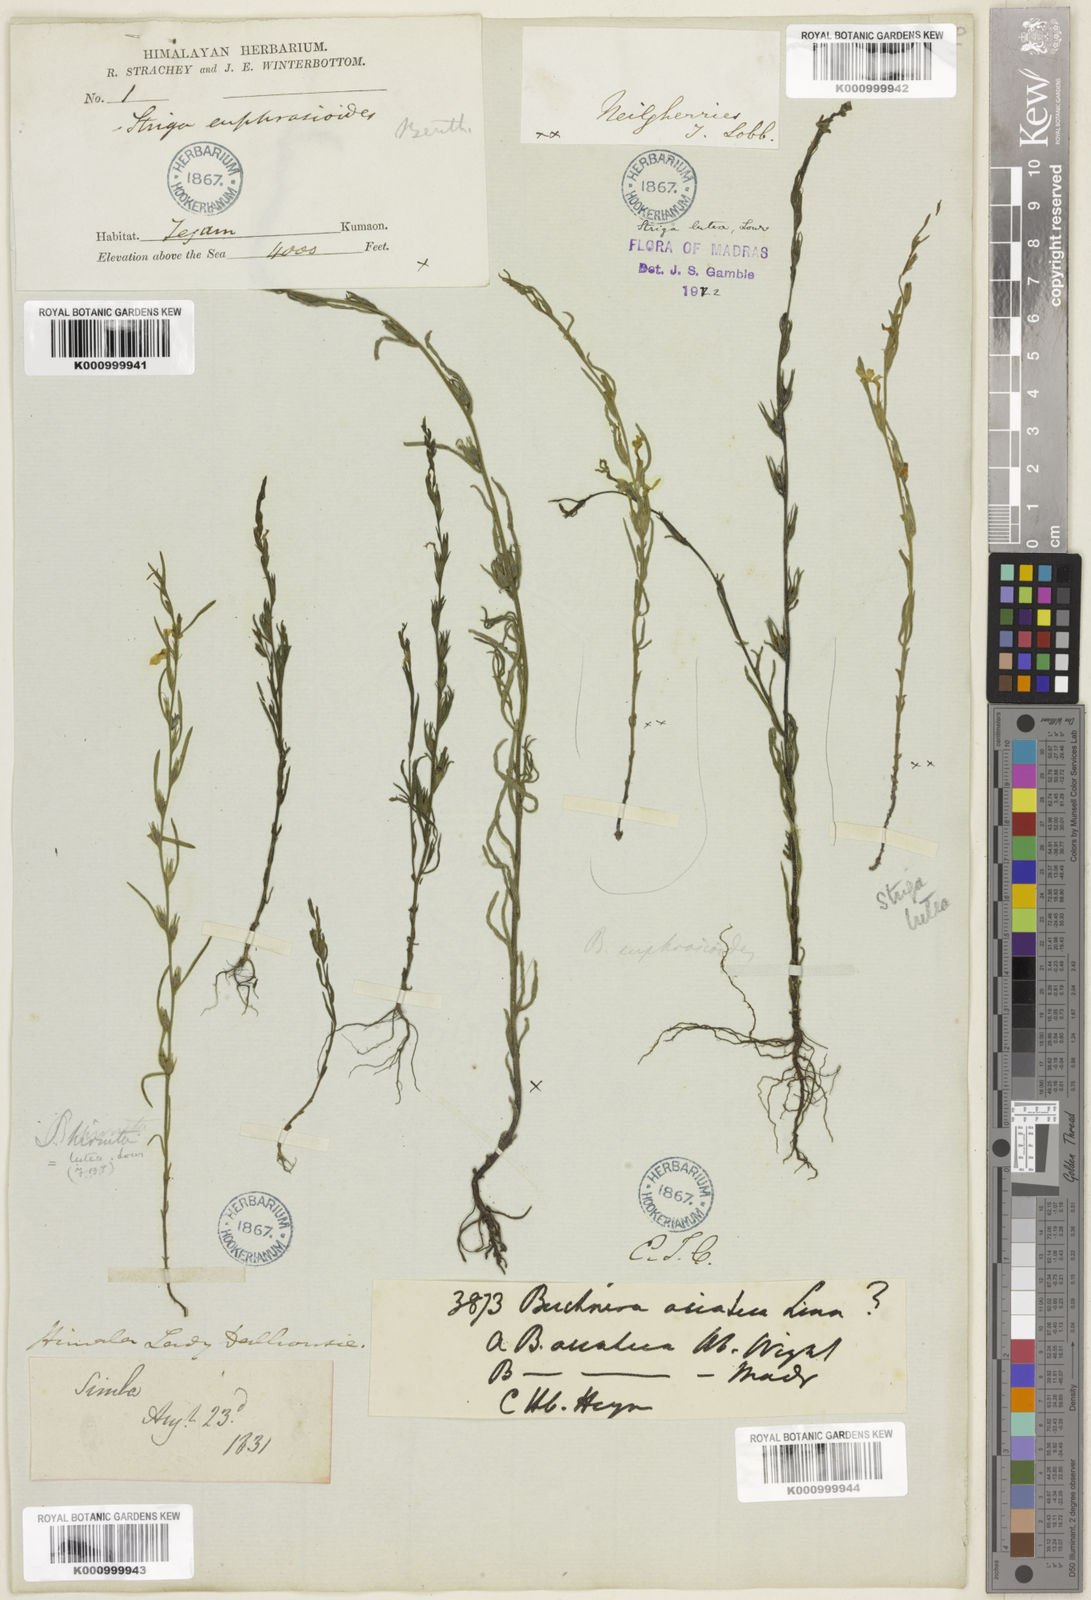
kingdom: Plantae
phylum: Tracheophyta
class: Magnoliopsida
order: Lamiales
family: Orobanchaceae
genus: Striga
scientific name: Striga angustifolia
